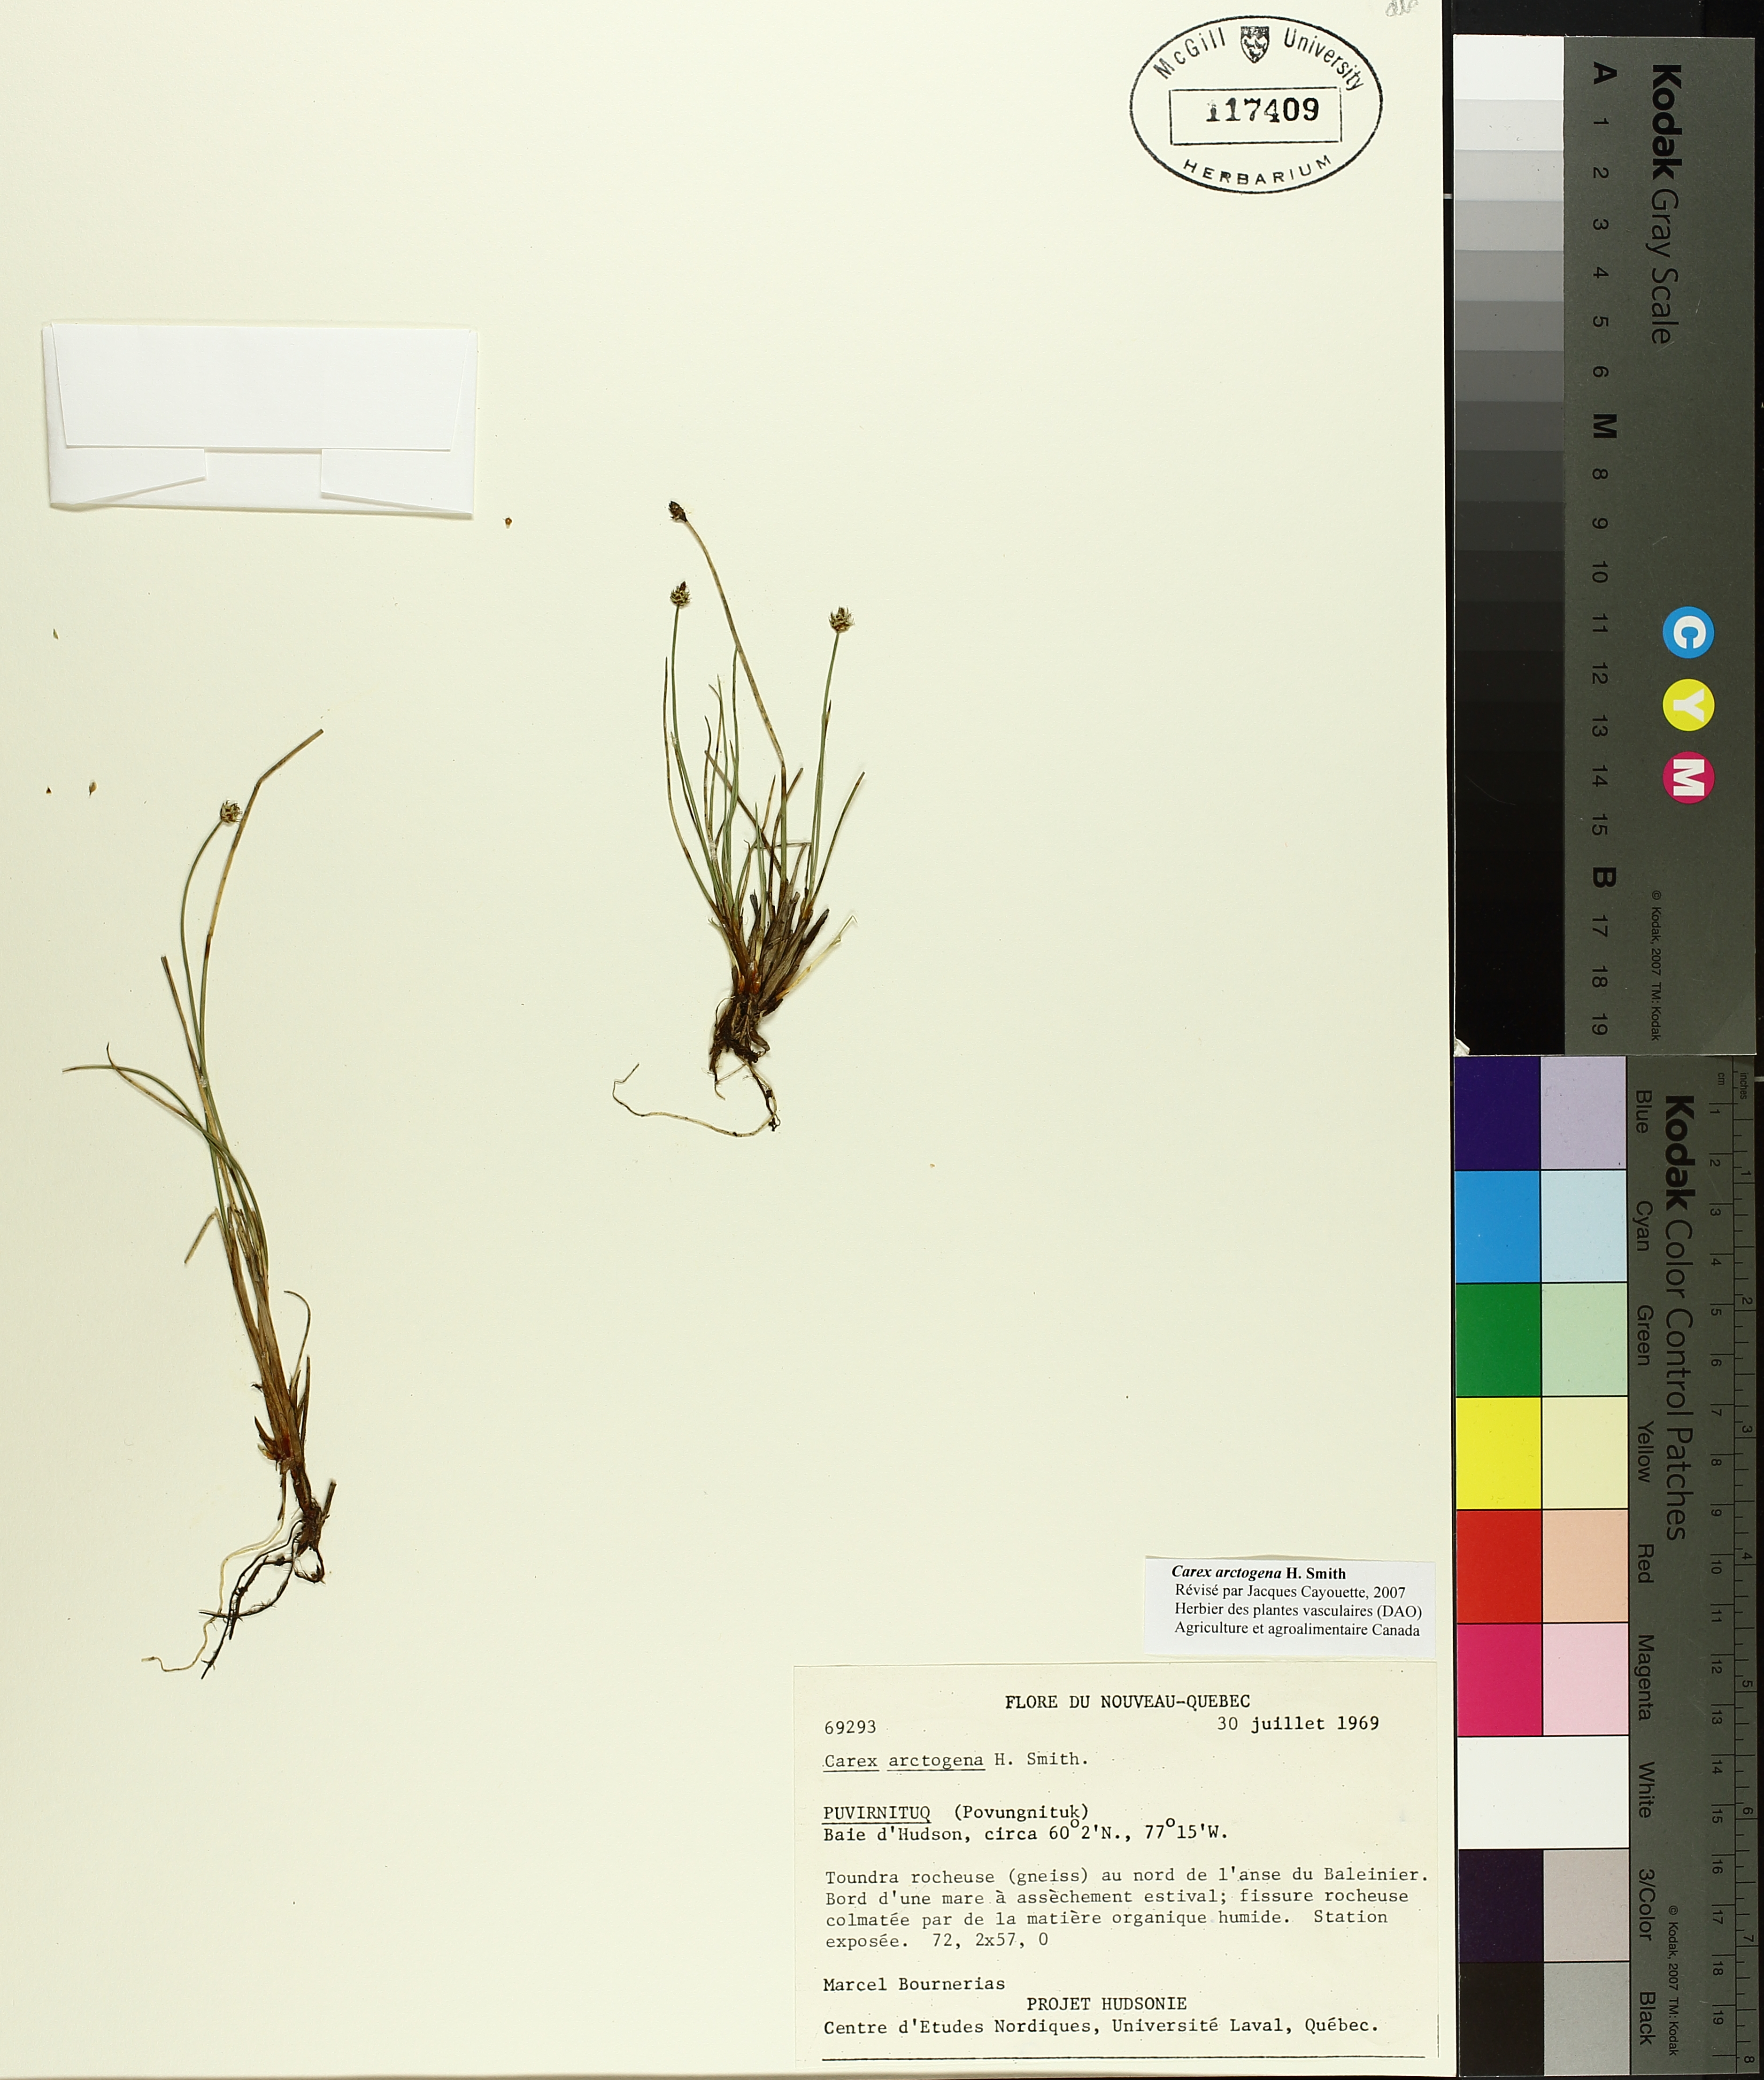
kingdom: Plantae
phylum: Tracheophyta
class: Liliopsida
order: Poales
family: Cyperaceae
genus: Carex
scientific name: Carex arctogena
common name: Black sedge
